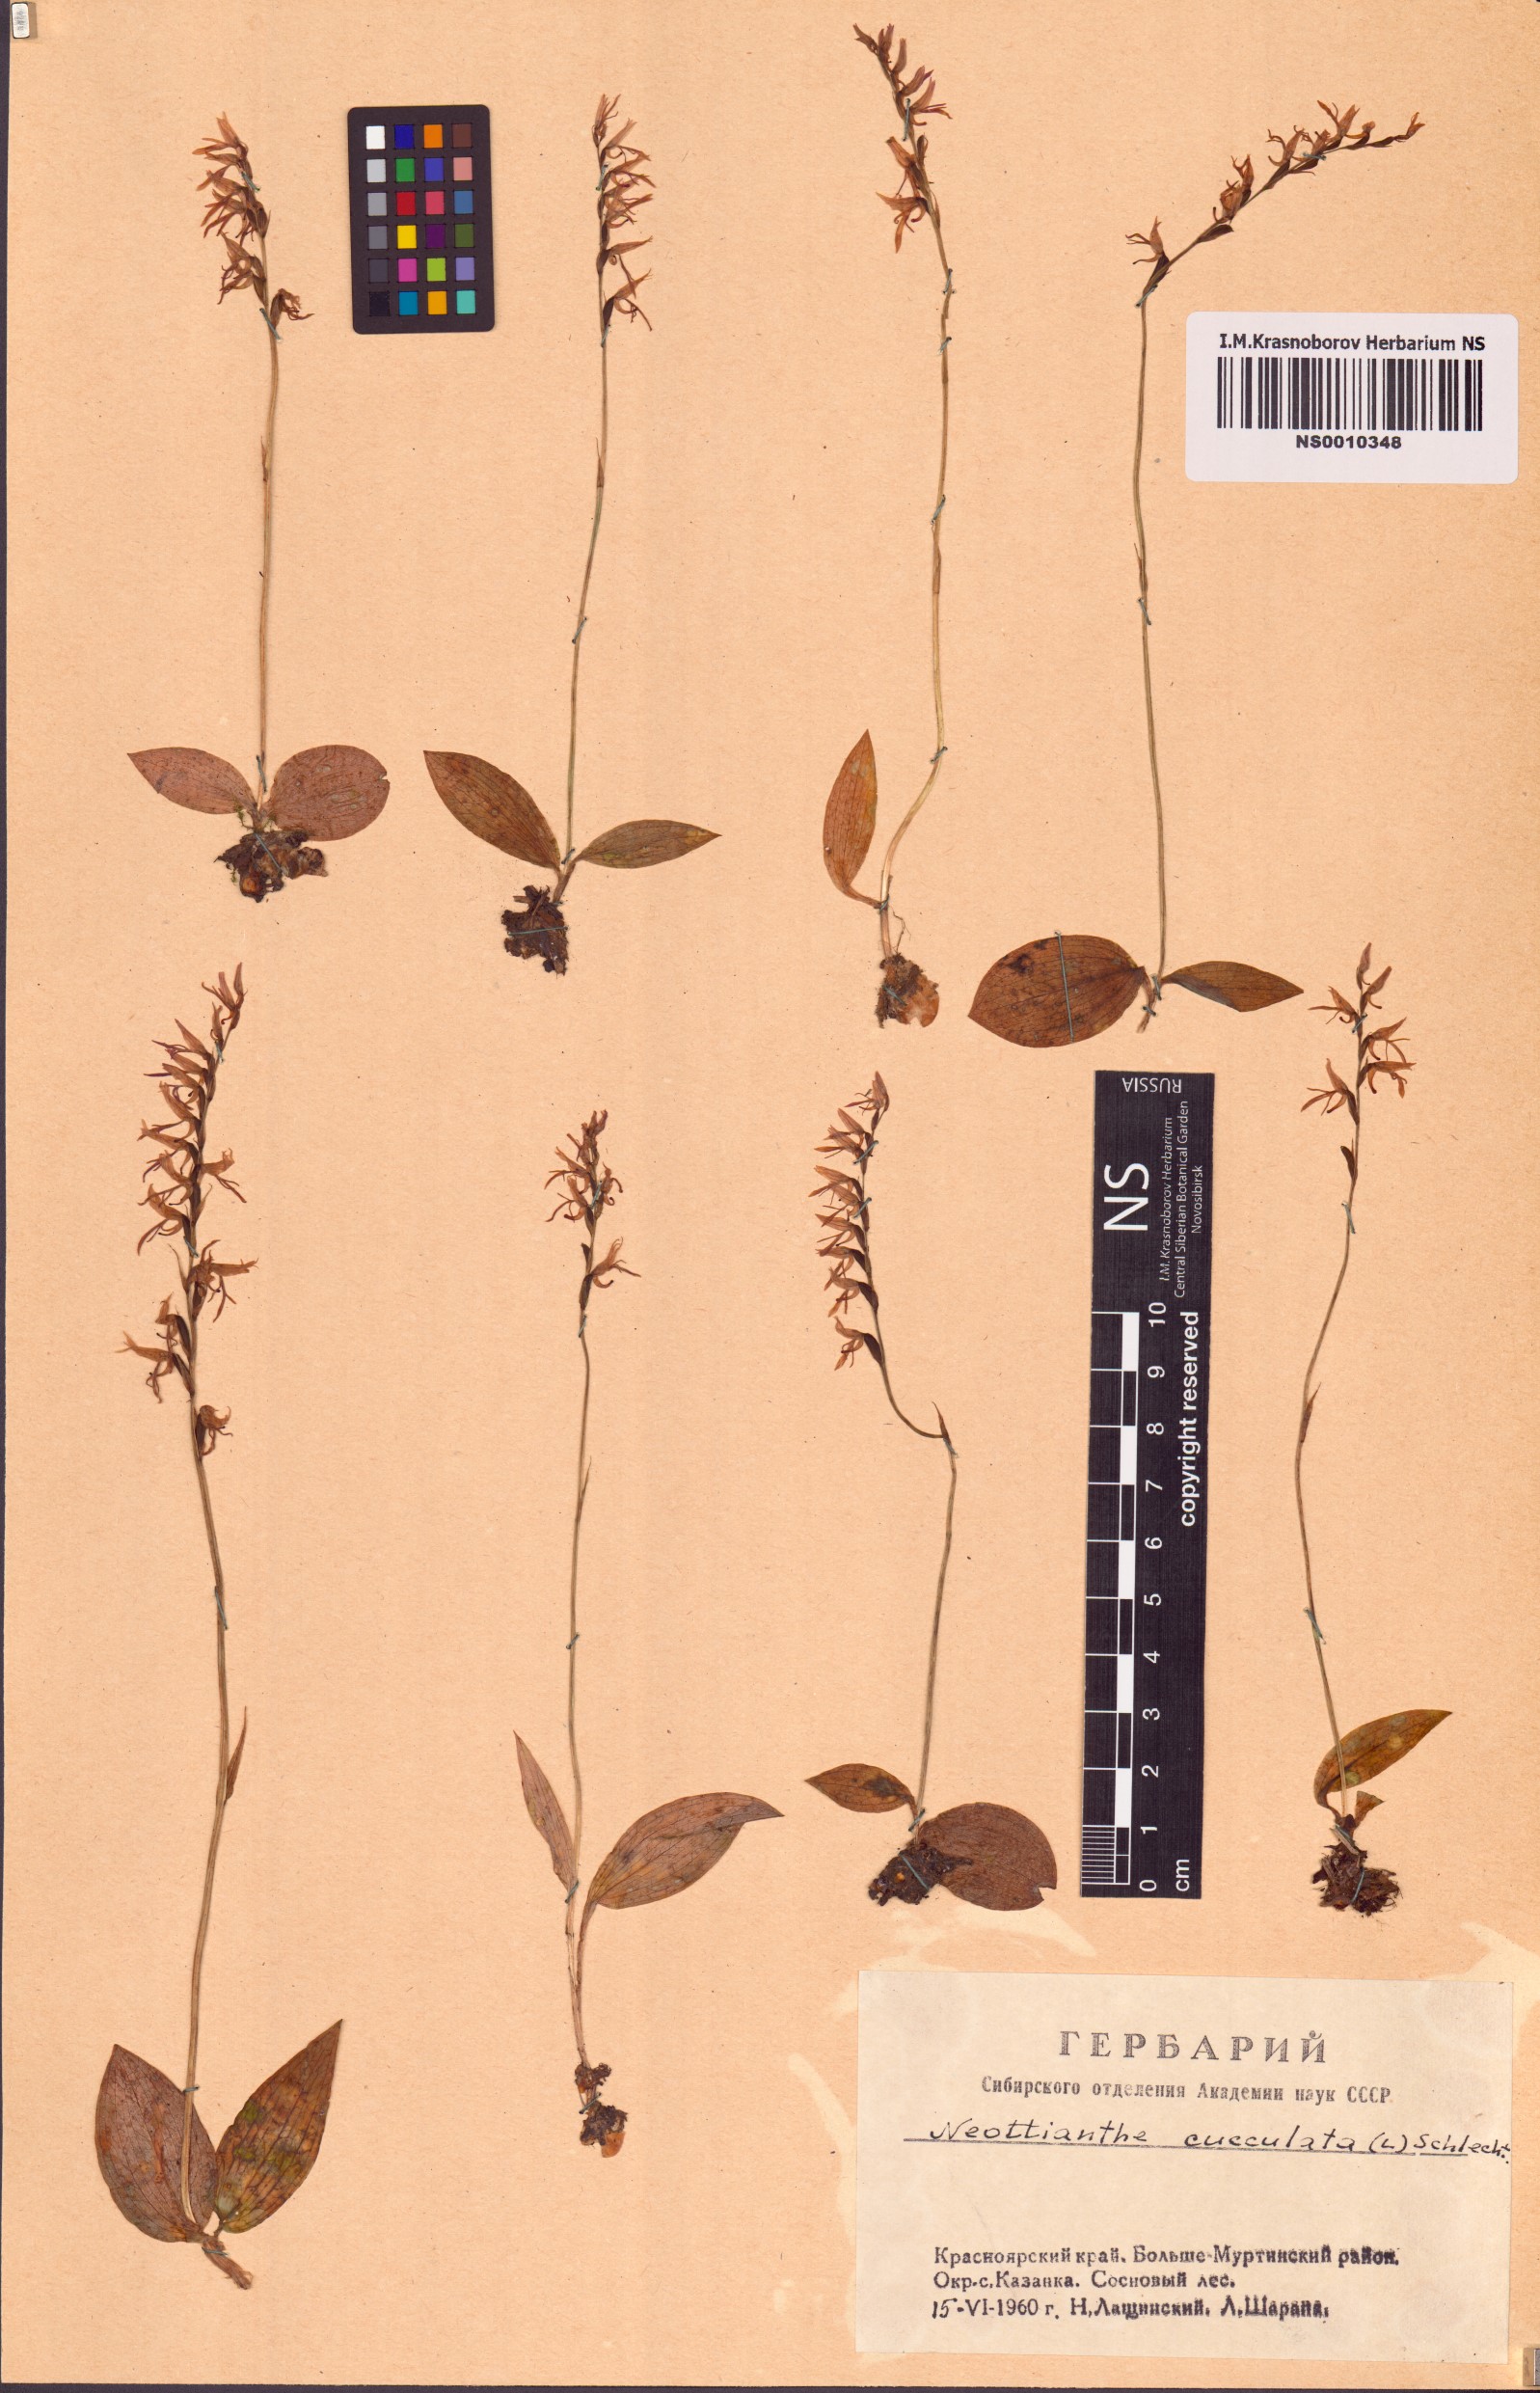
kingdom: Plantae
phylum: Tracheophyta
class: Liliopsida
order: Asparagales
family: Orchidaceae
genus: Hemipilia
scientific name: Hemipilia cucullata
